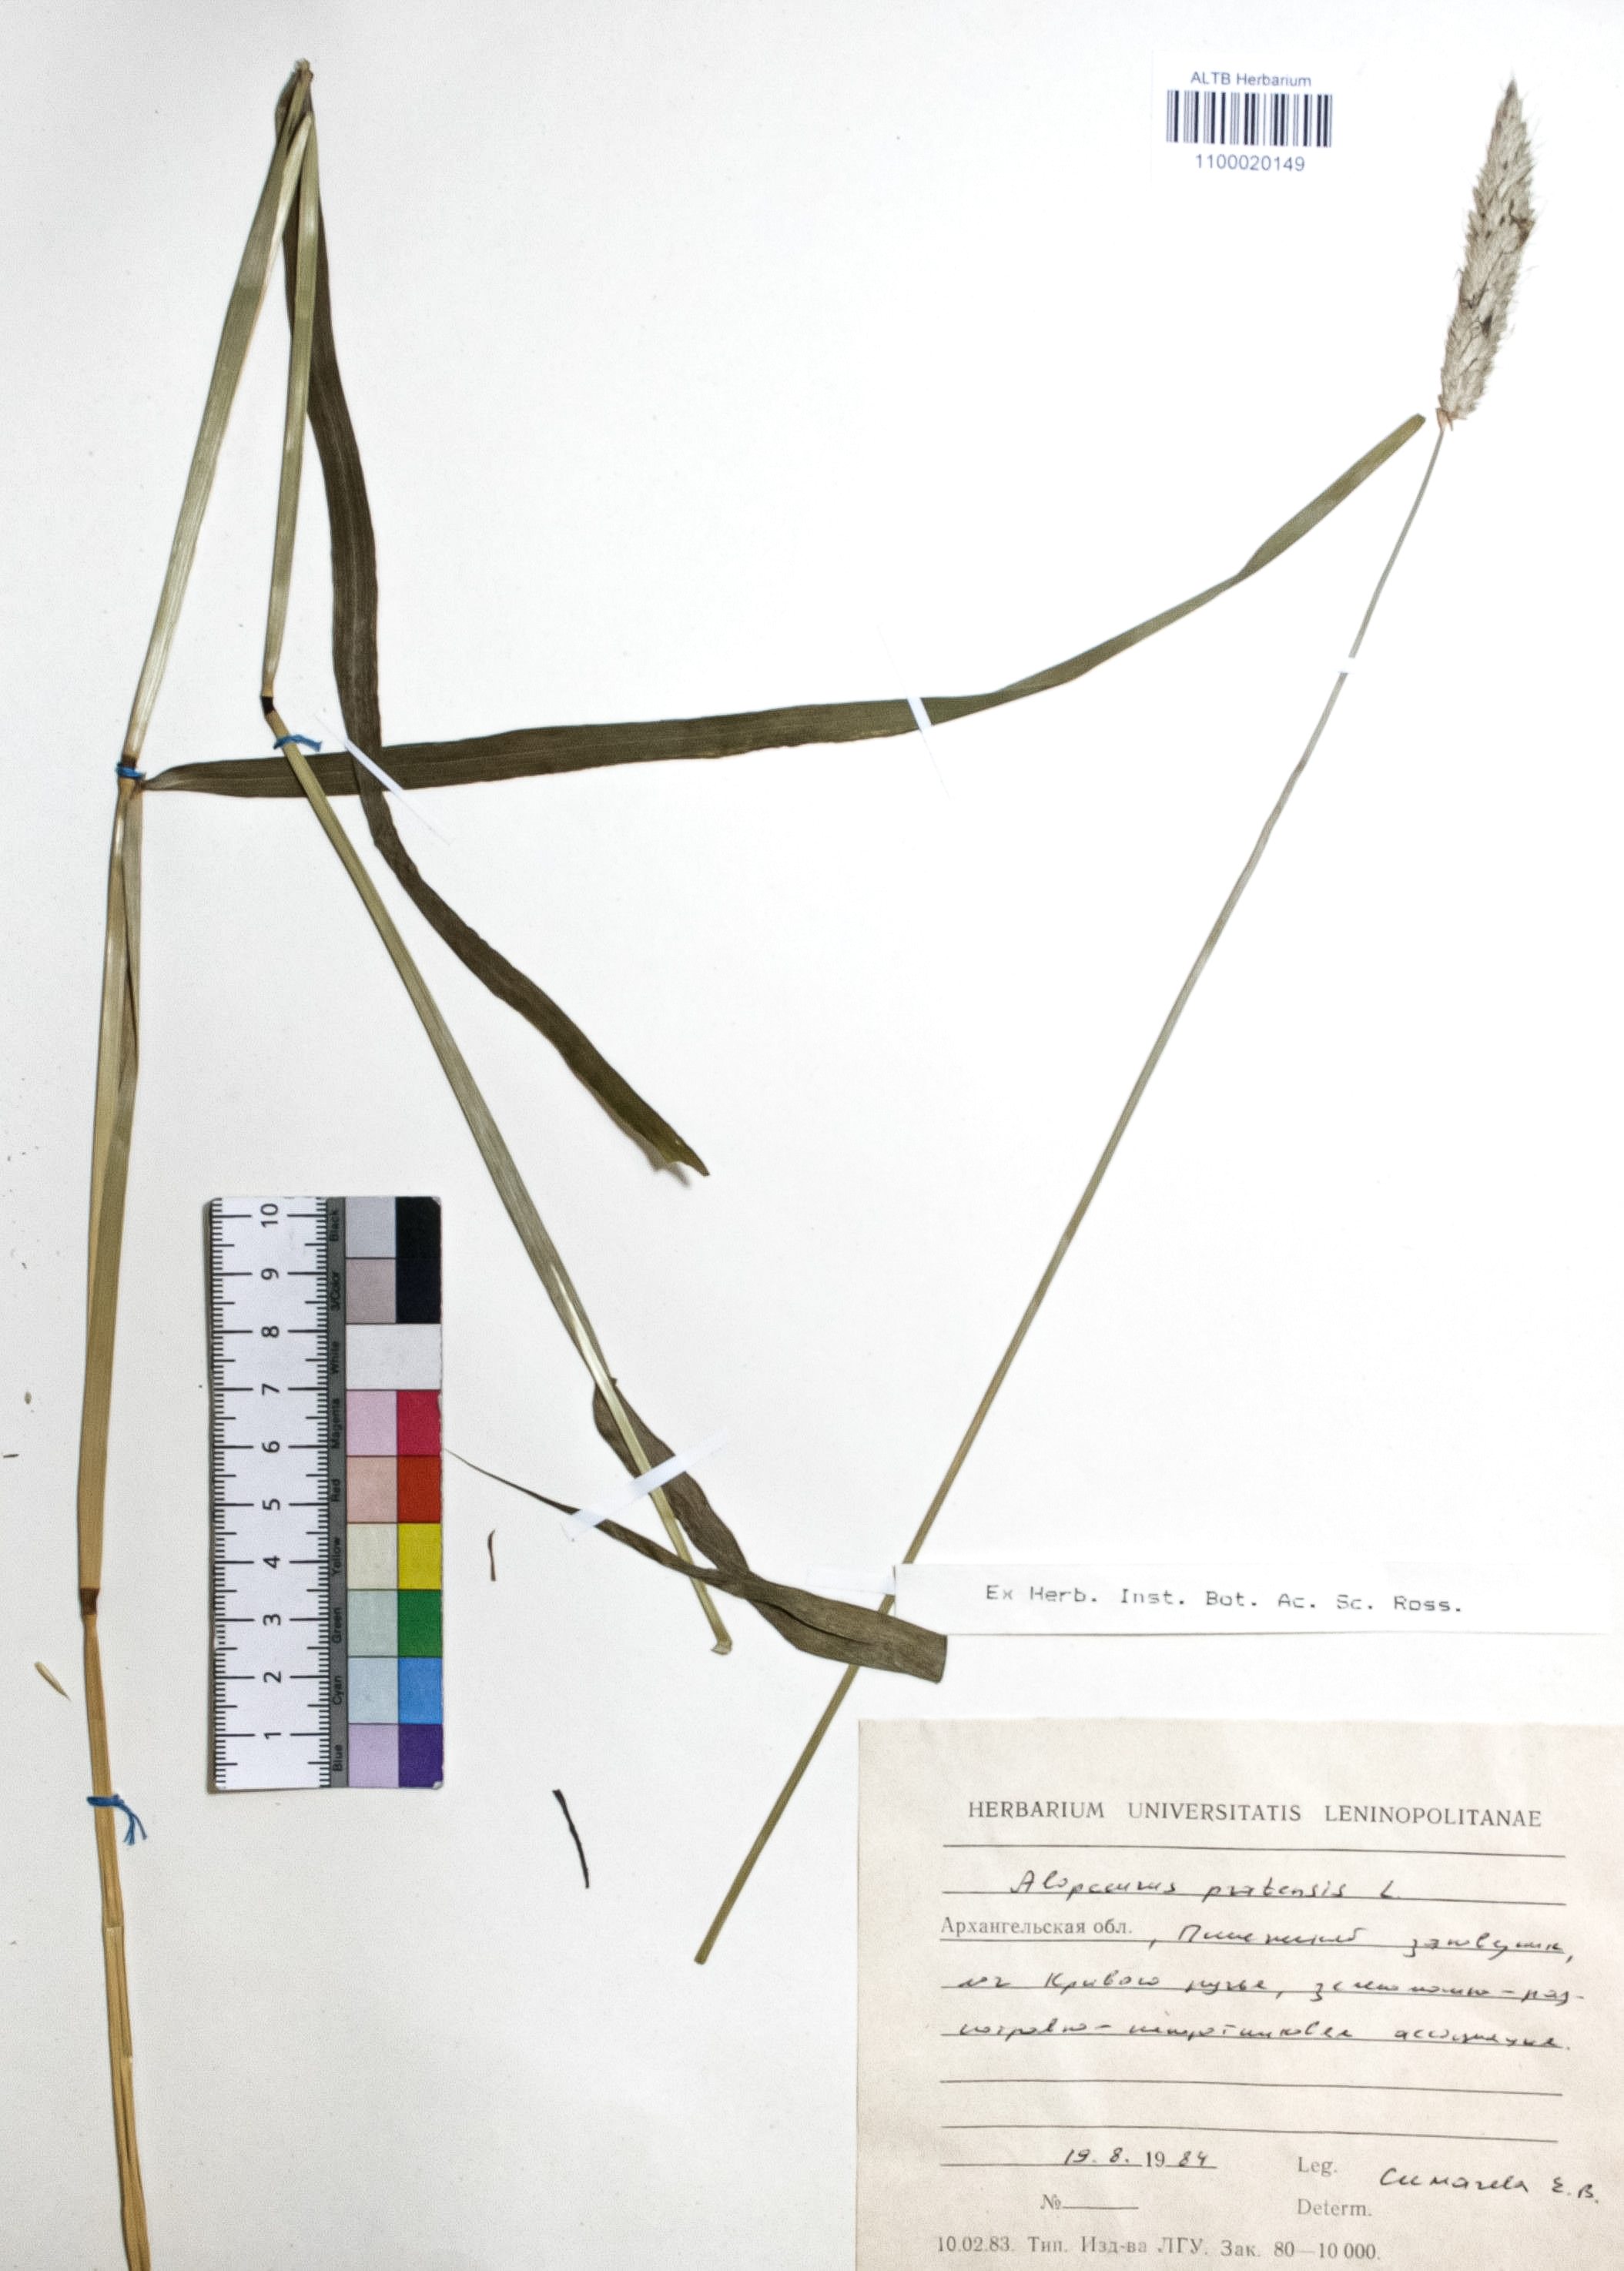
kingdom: Plantae
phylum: Tracheophyta
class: Liliopsida
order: Poales
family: Poaceae
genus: Alopecurus
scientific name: Alopecurus pratensis
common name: Meadow foxtail
